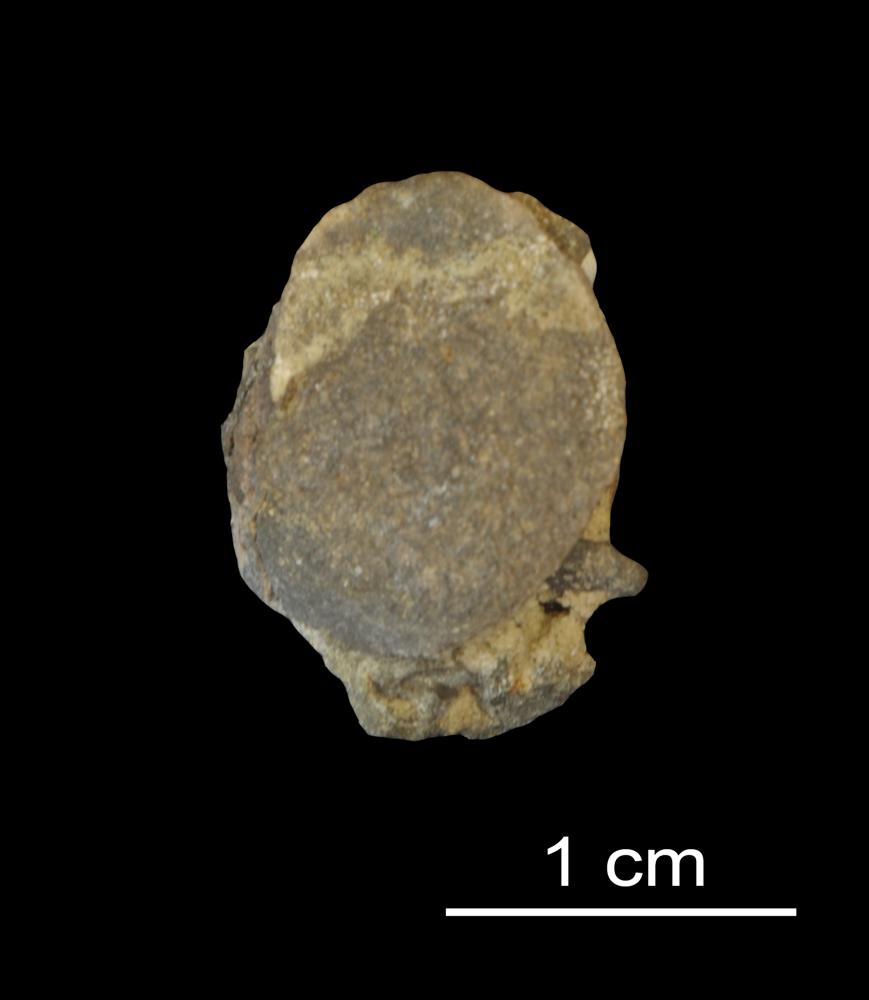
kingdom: Animalia
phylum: Brachiopoda
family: Paterinidae
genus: Mickwitzia
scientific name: Mickwitzia
